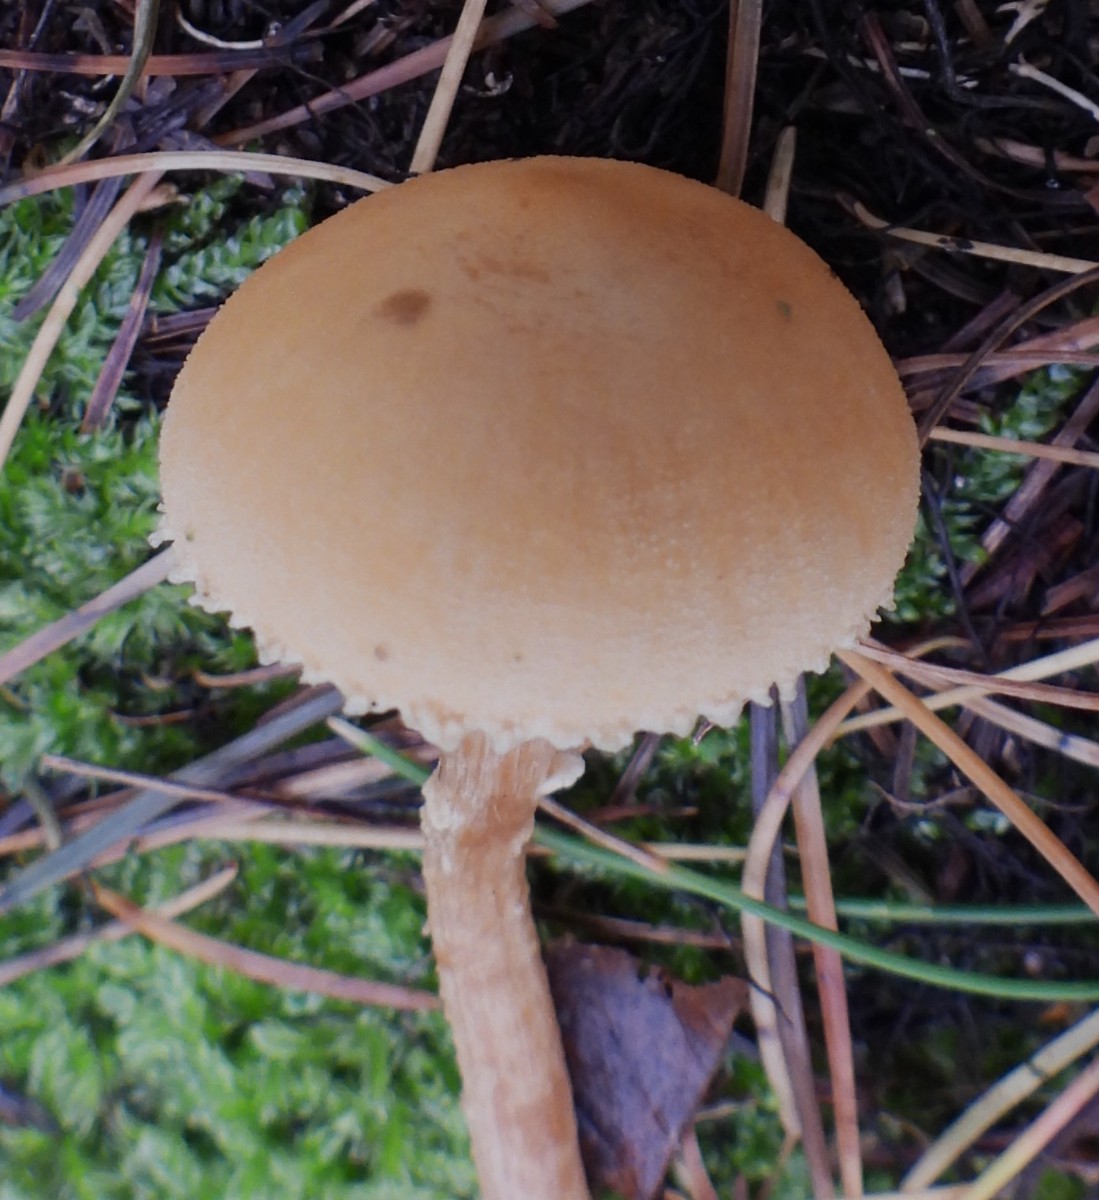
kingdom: Fungi
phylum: Basidiomycota
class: Agaricomycetes
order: Agaricales
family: Tricholomataceae
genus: Cystoderma
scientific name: Cystoderma amianthinum
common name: okkergul grynhat
